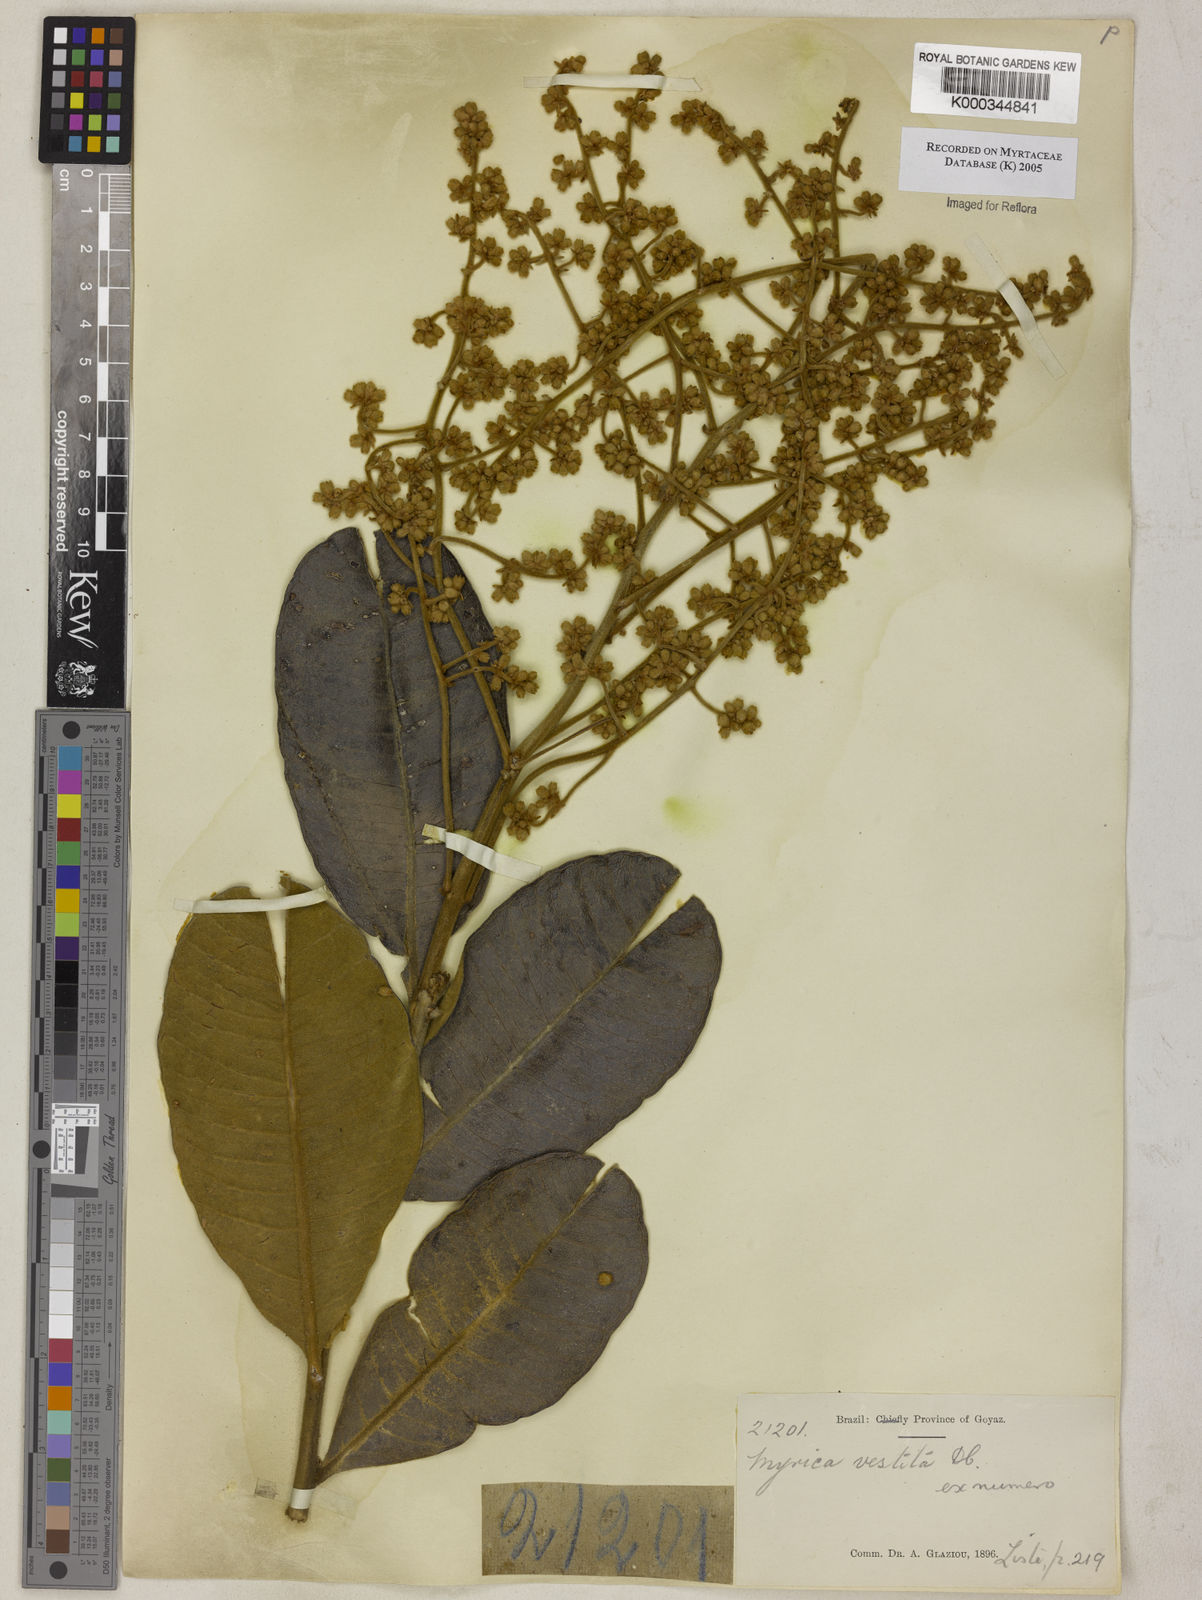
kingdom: Plantae
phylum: Tracheophyta
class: Magnoliopsida
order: Myrtales
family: Myrtaceae
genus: Myrcia
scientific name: Myrcia vestita
